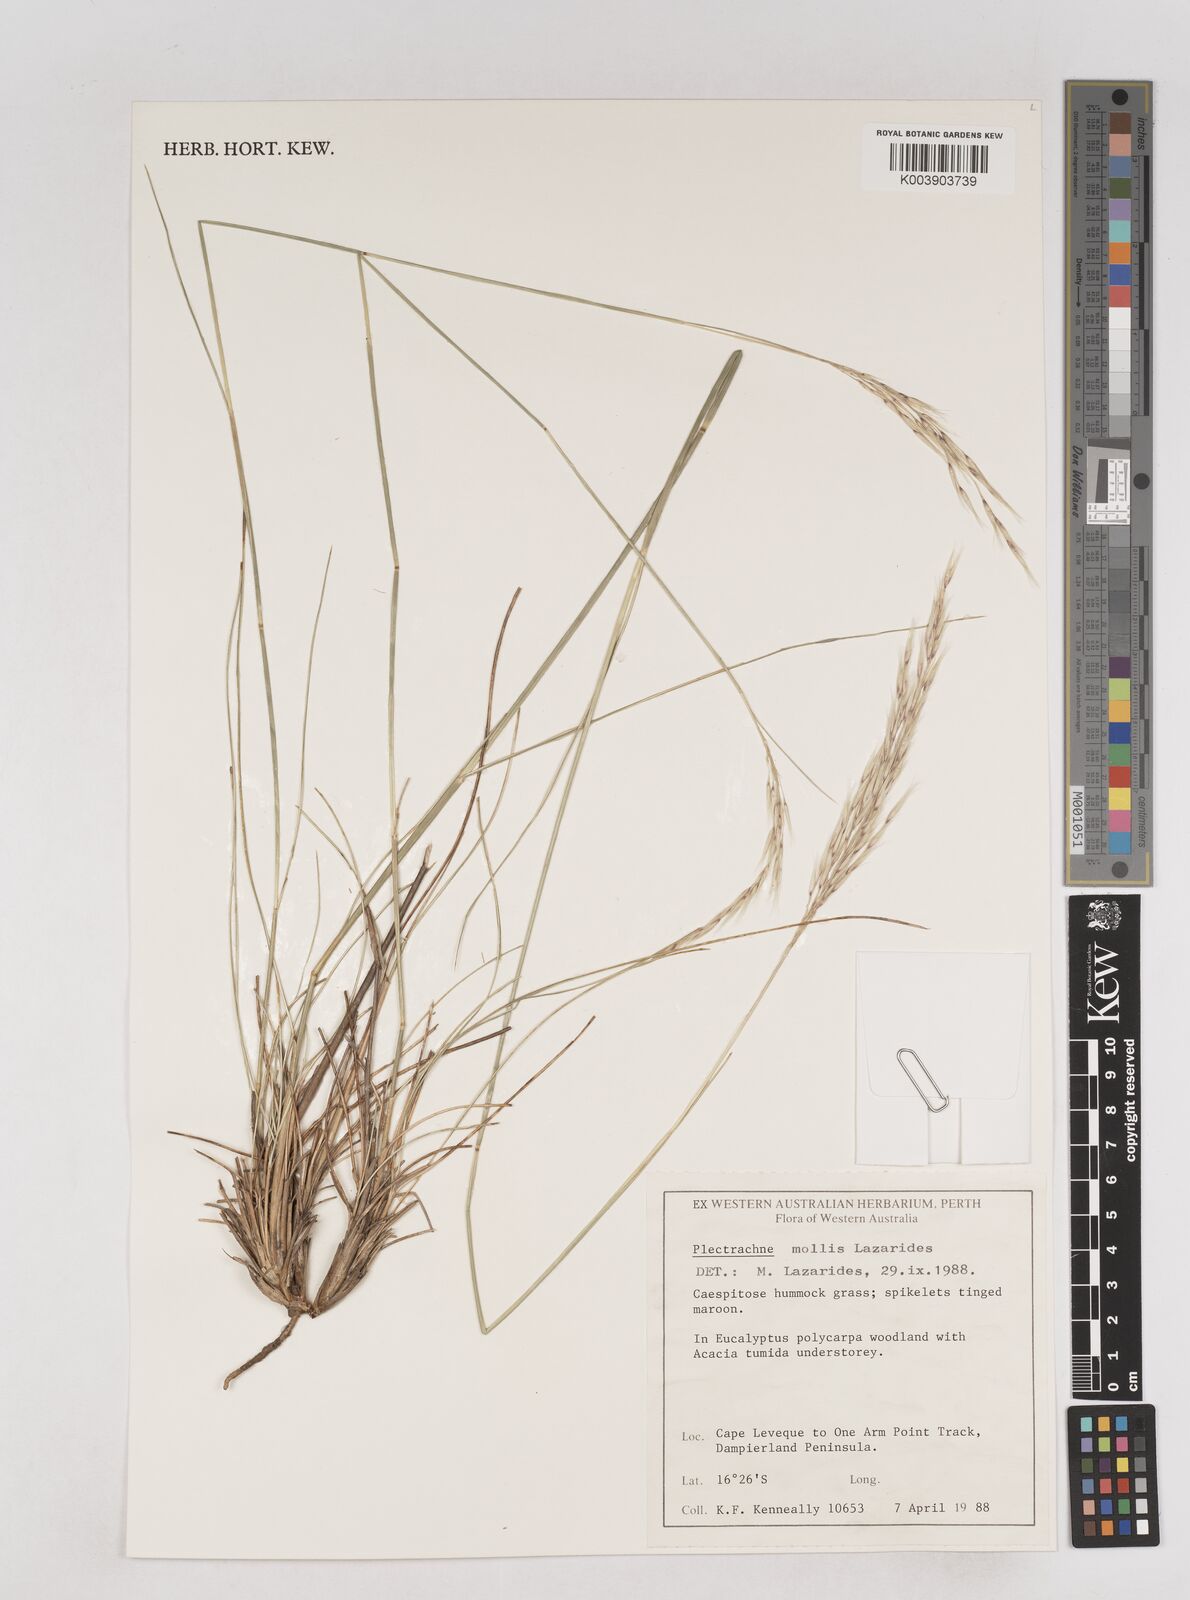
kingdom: Plantae
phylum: Tracheophyta
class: Liliopsida
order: Poales
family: Poaceae
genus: Triodia
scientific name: Triodia claytonii
